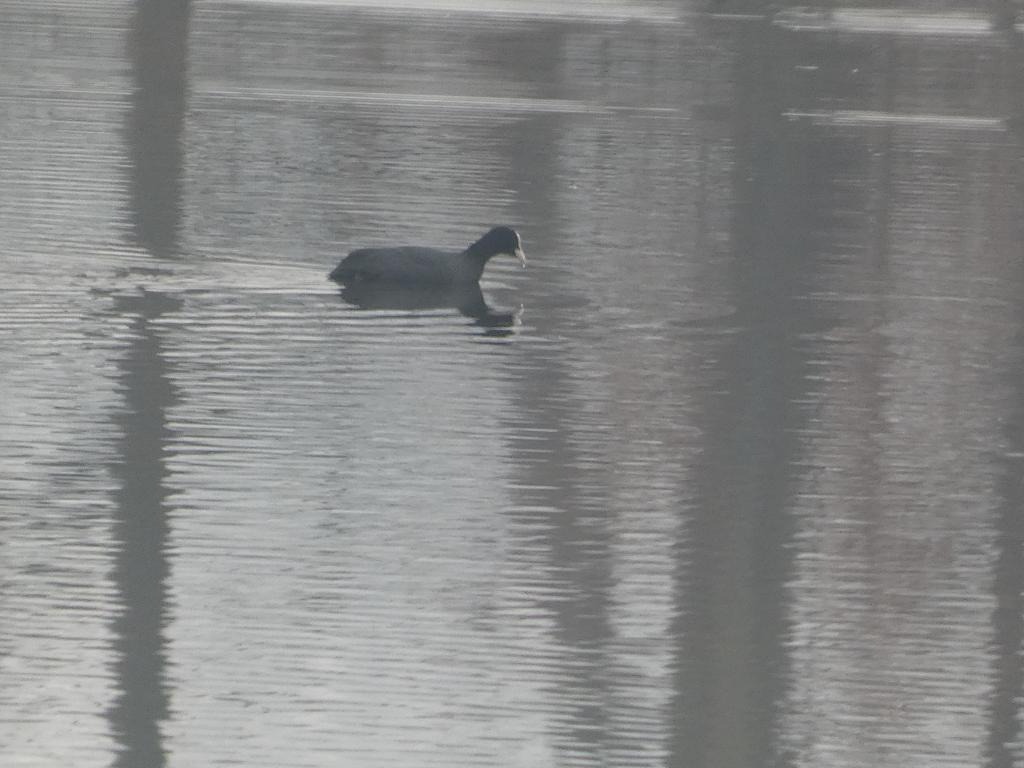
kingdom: Animalia
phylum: Chordata
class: Aves
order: Gruiformes
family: Rallidae
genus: Fulica
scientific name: Fulica atra
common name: Blishøne
